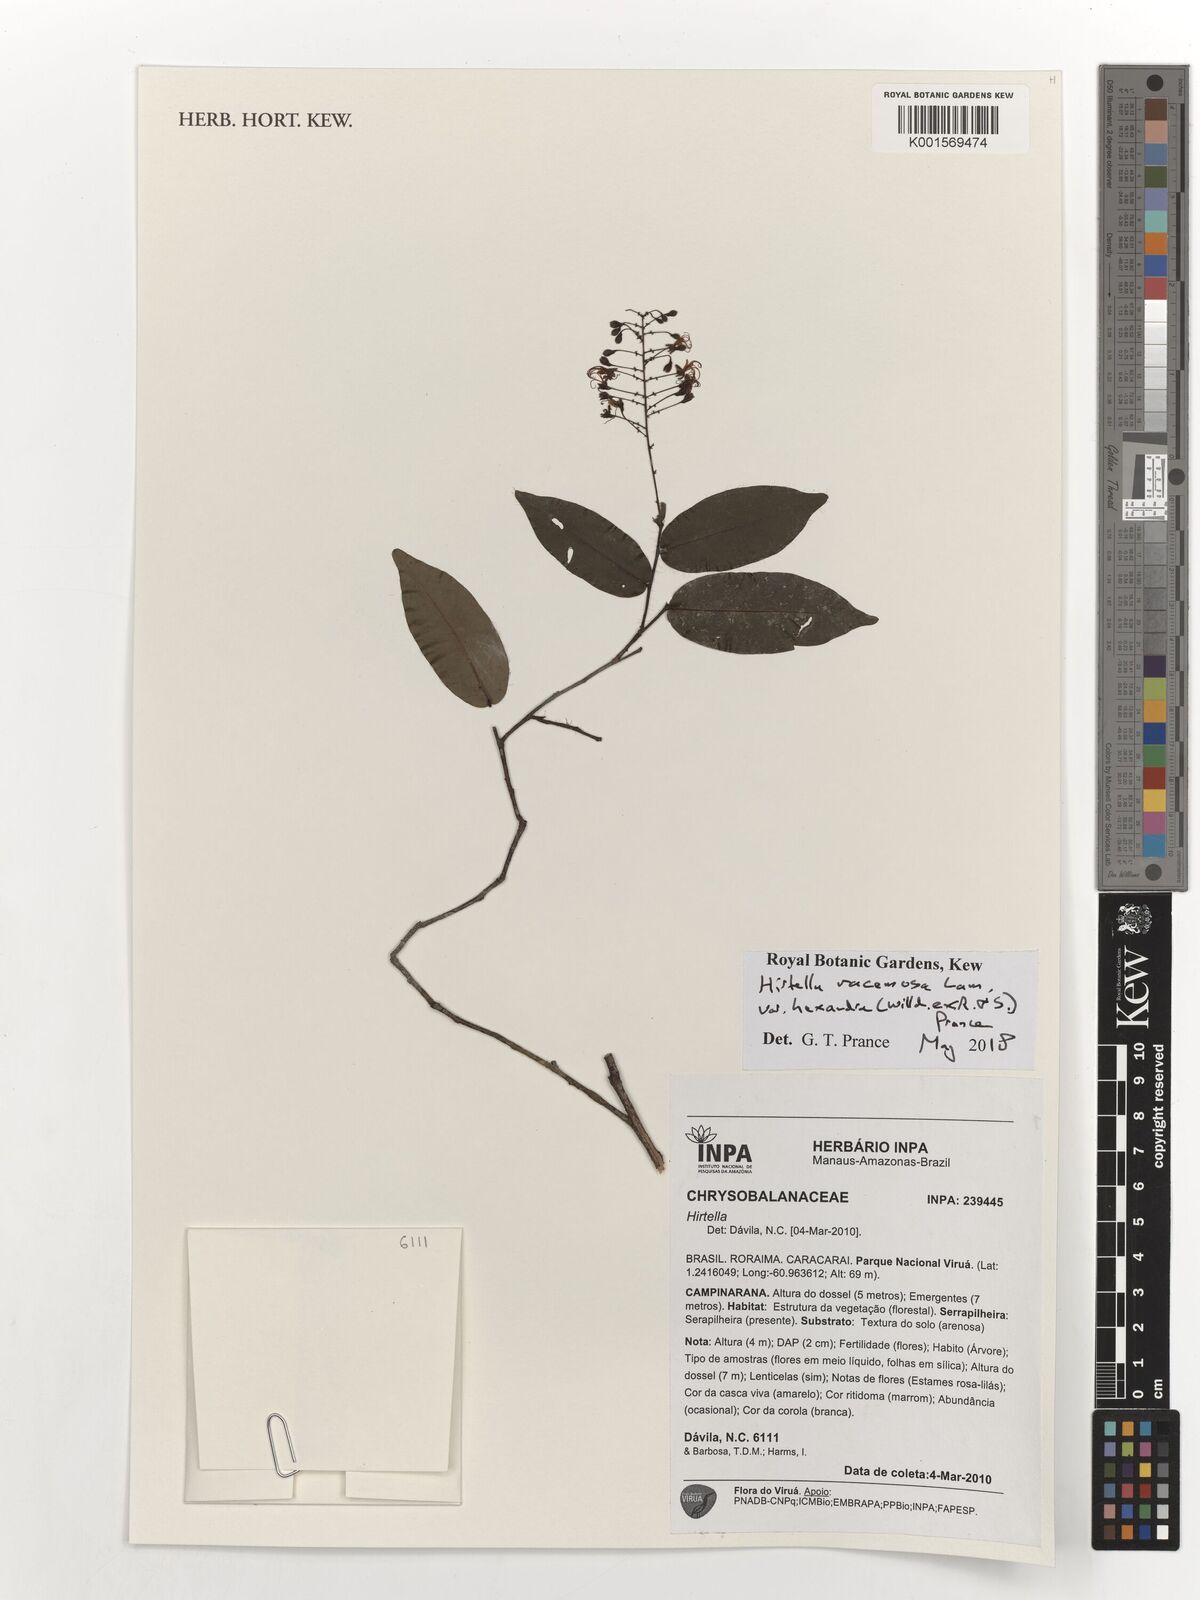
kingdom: Plantae
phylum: Tracheophyta
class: Magnoliopsida
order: Malpighiales
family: Chrysobalanaceae
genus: Hirtella
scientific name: Hirtella racemosa
